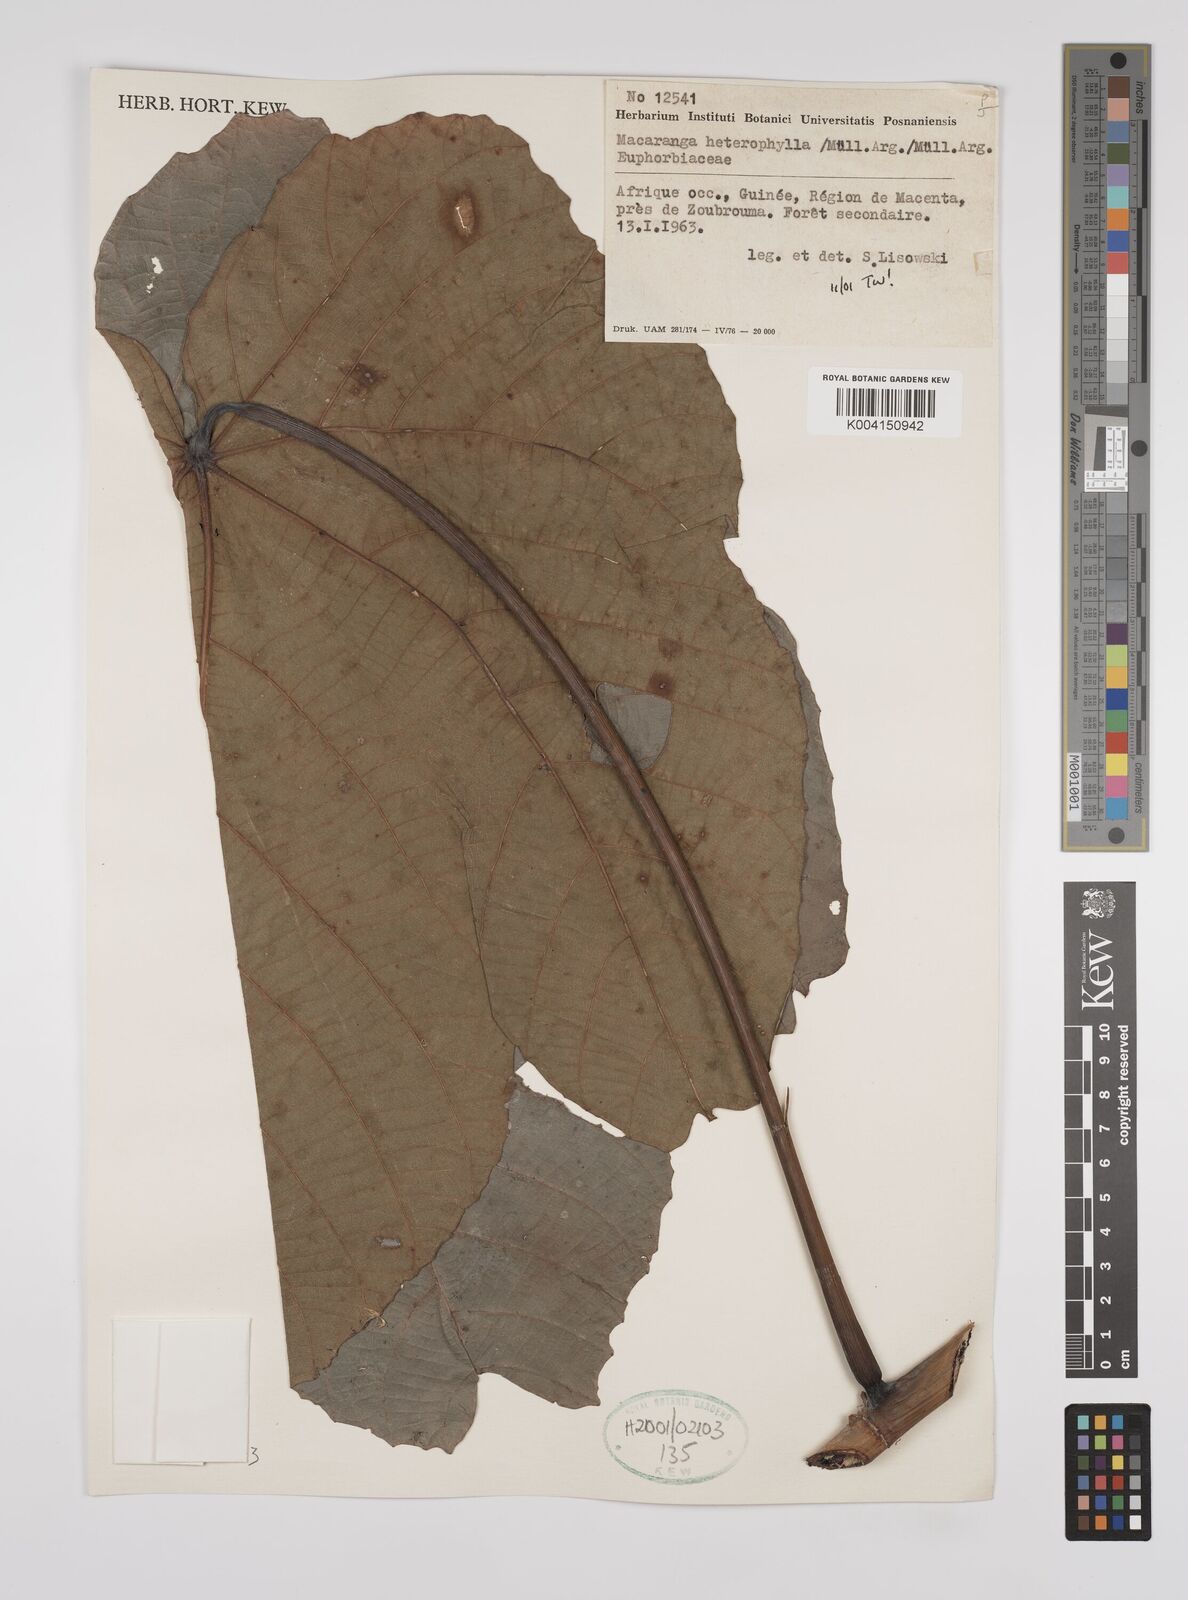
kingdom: Plantae
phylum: Tracheophyta
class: Magnoliopsida
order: Malpighiales
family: Euphorbiaceae
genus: Macaranga
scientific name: Macaranga heterophylla
